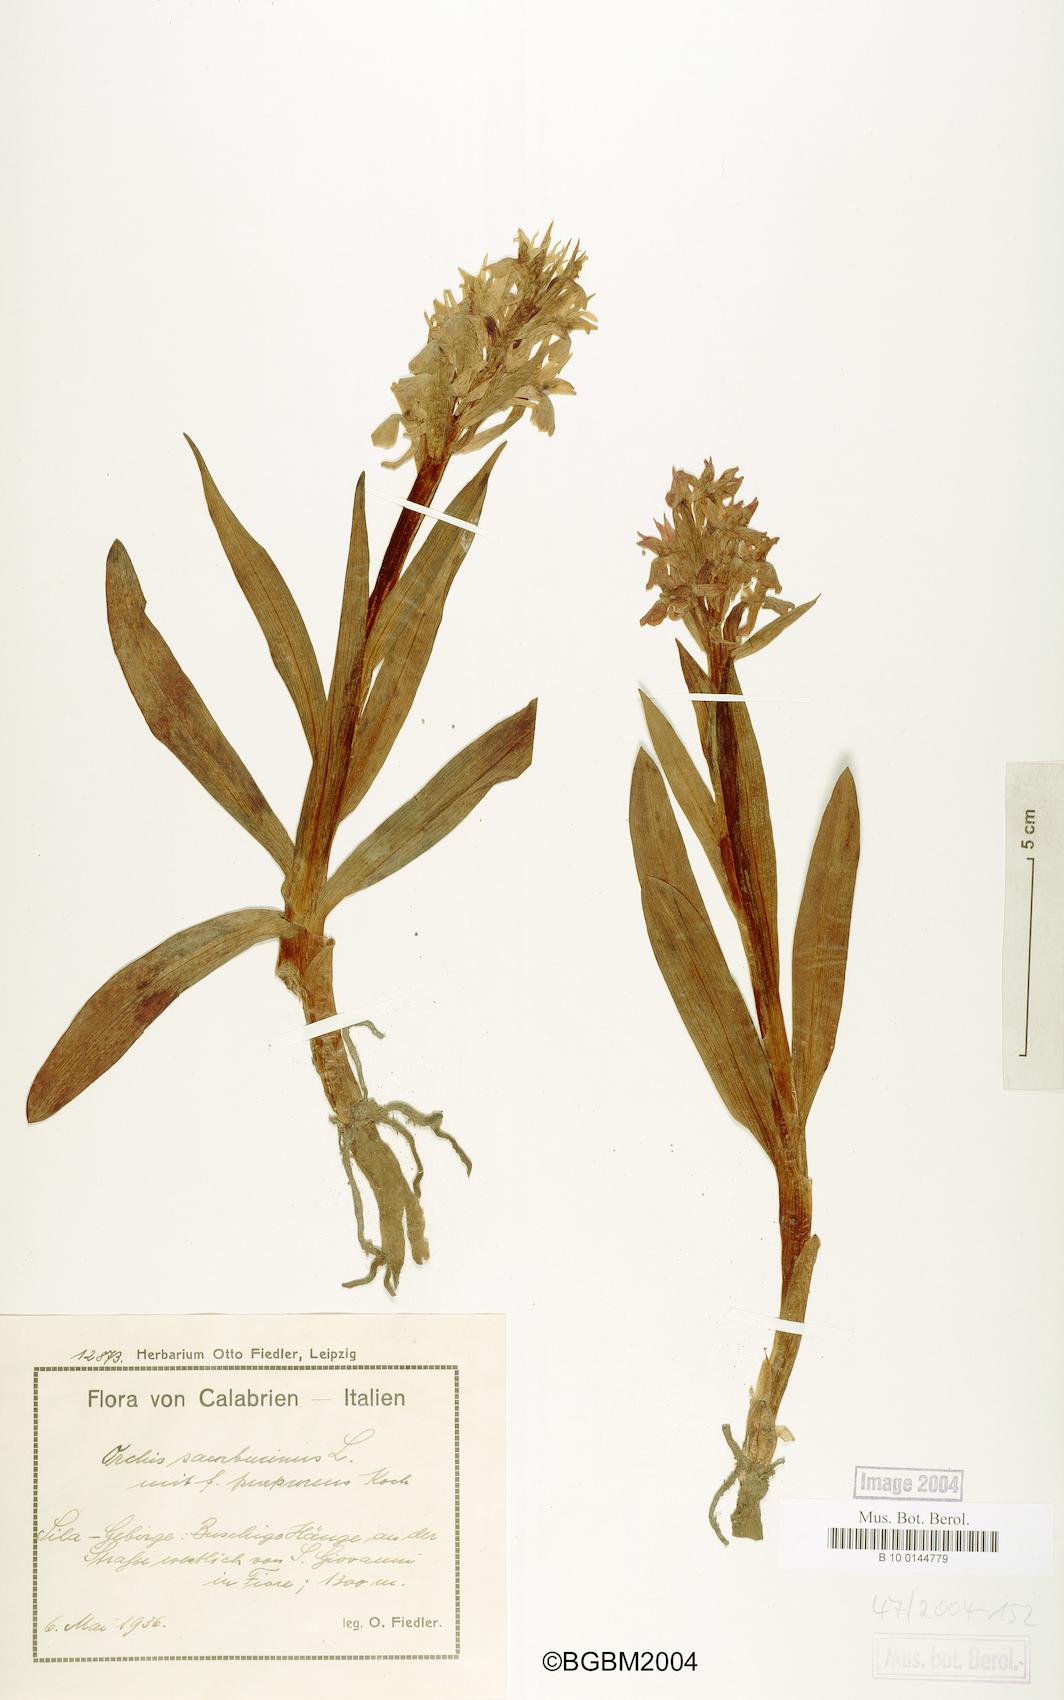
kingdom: Plantae
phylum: Tracheophyta
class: Liliopsida
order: Asparagales
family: Orchidaceae
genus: Dactylorhiza
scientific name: Dactylorhiza sambucina
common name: Elder-flowered orchid
